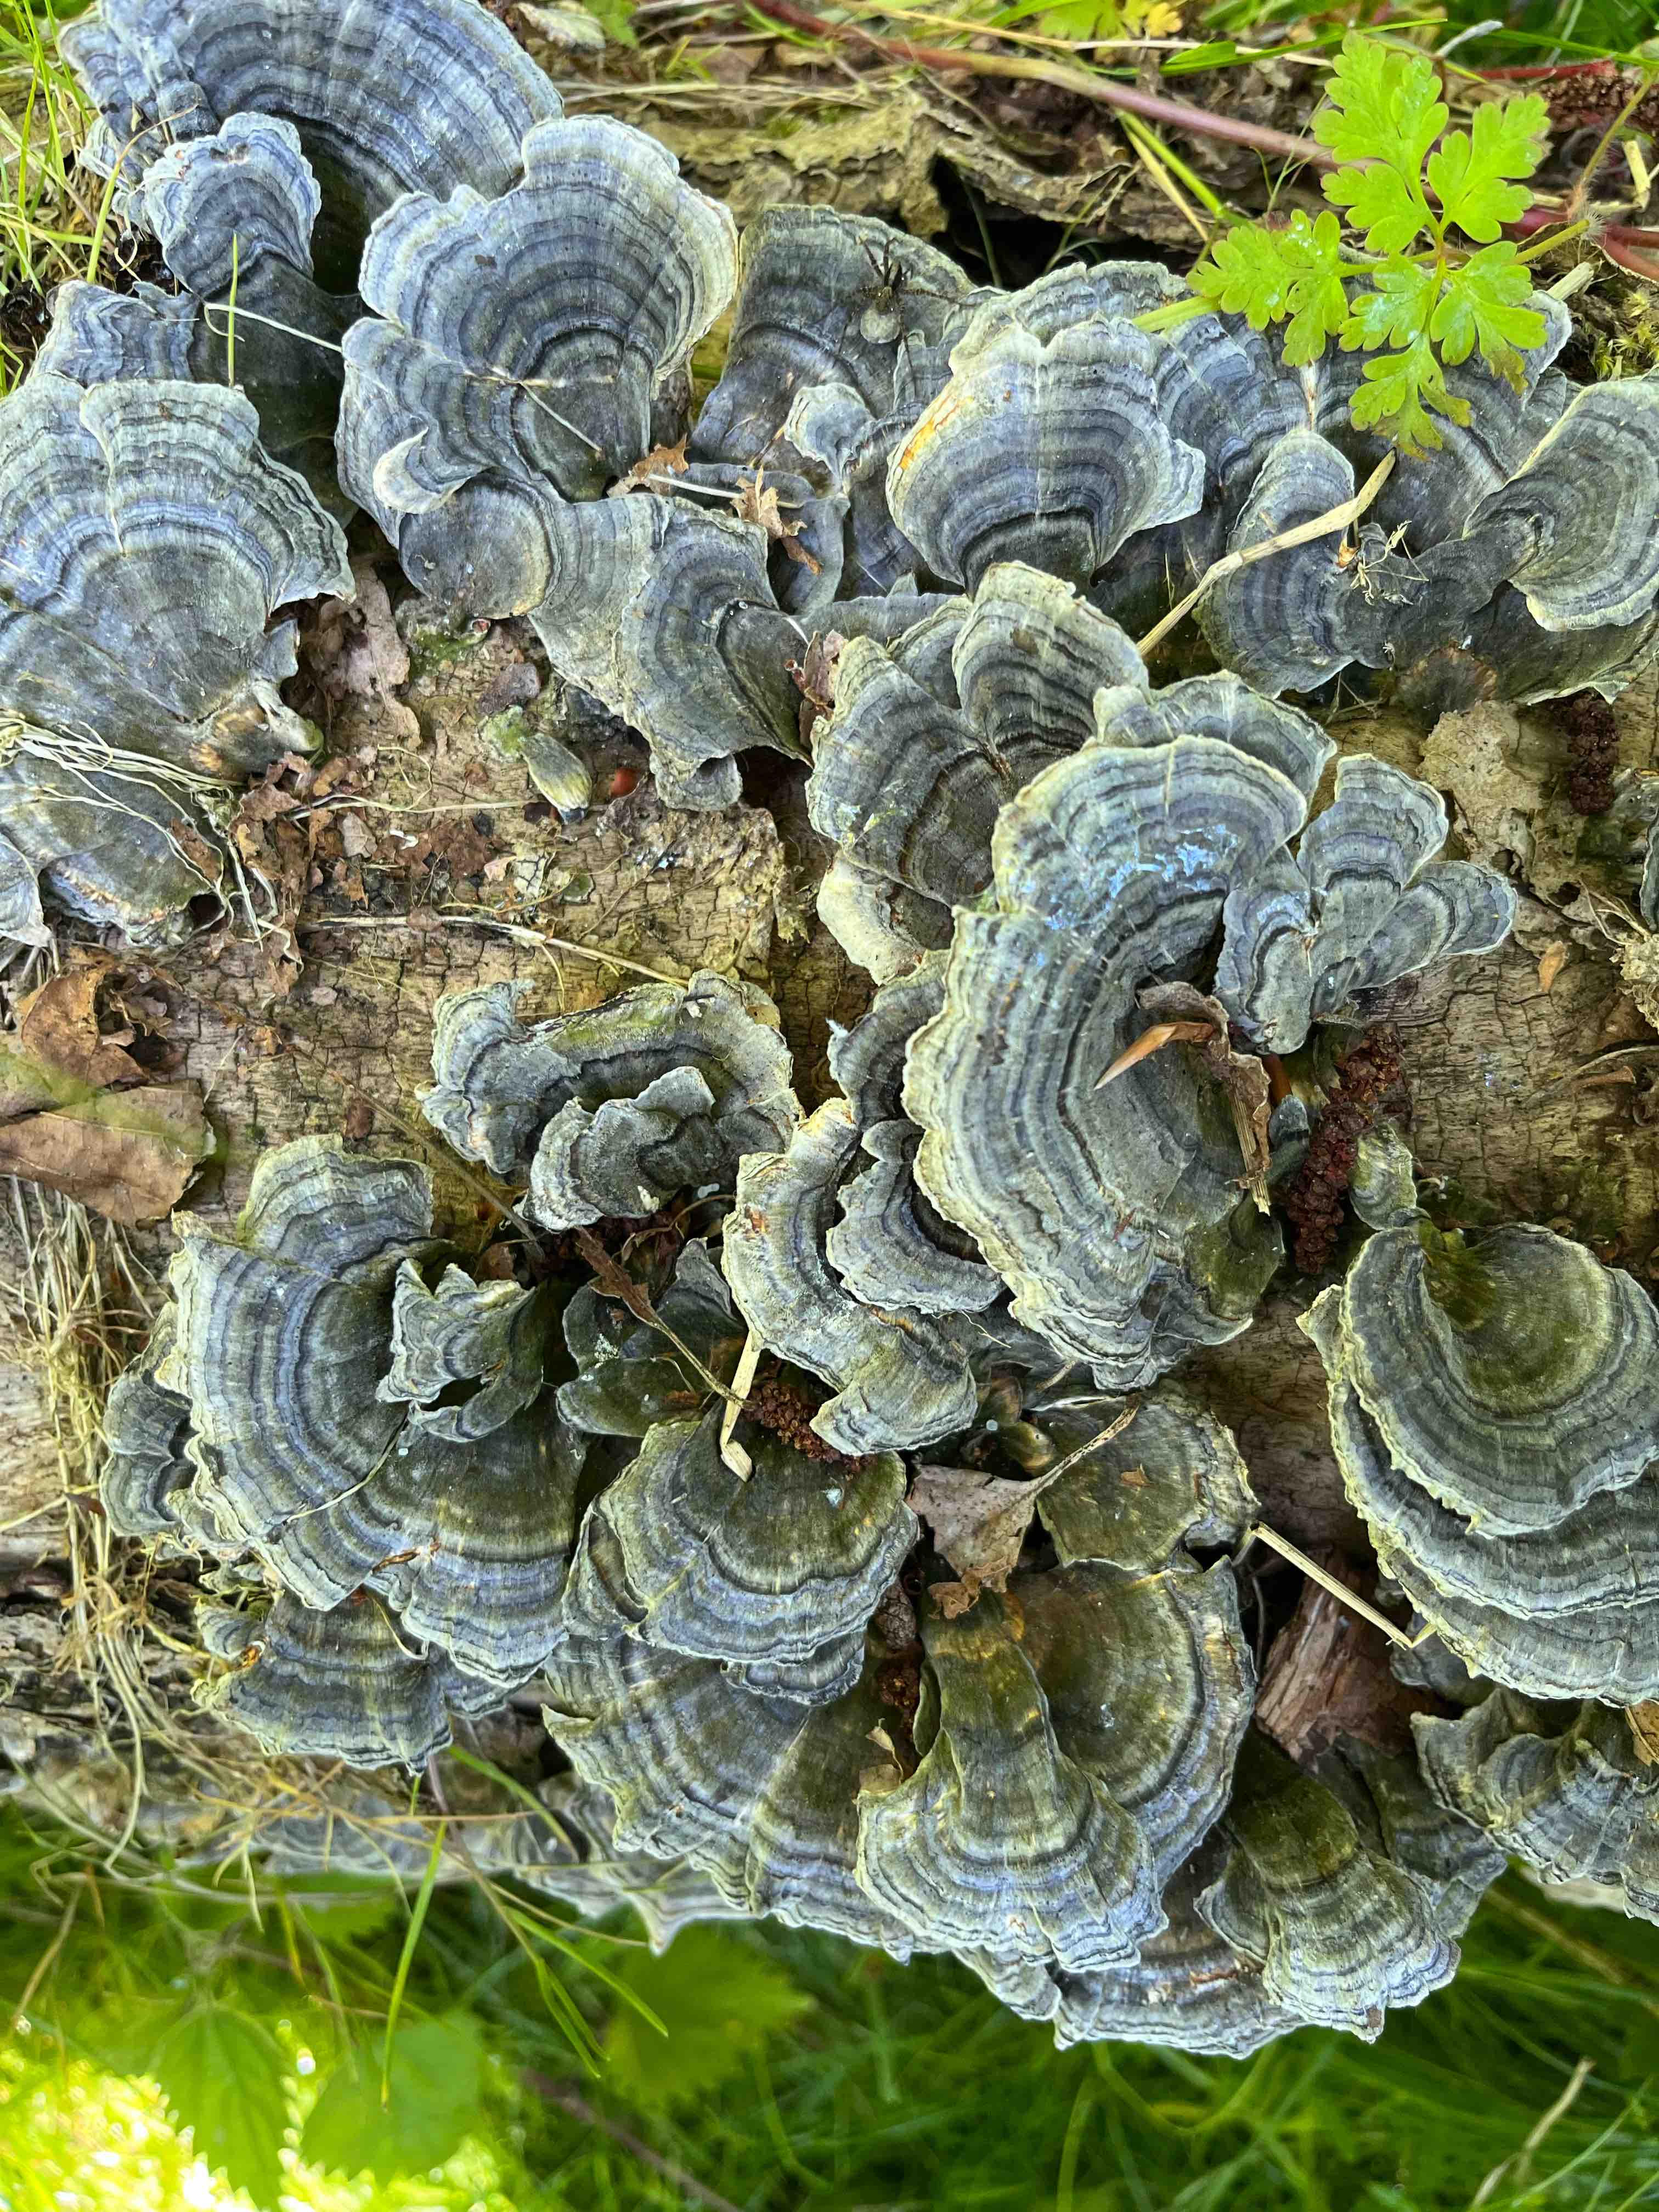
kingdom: Fungi
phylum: Basidiomycota
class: Agaricomycetes
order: Polyporales
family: Polyporaceae
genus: Trametes
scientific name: Trametes versicolor
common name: broget læderporesvamp
